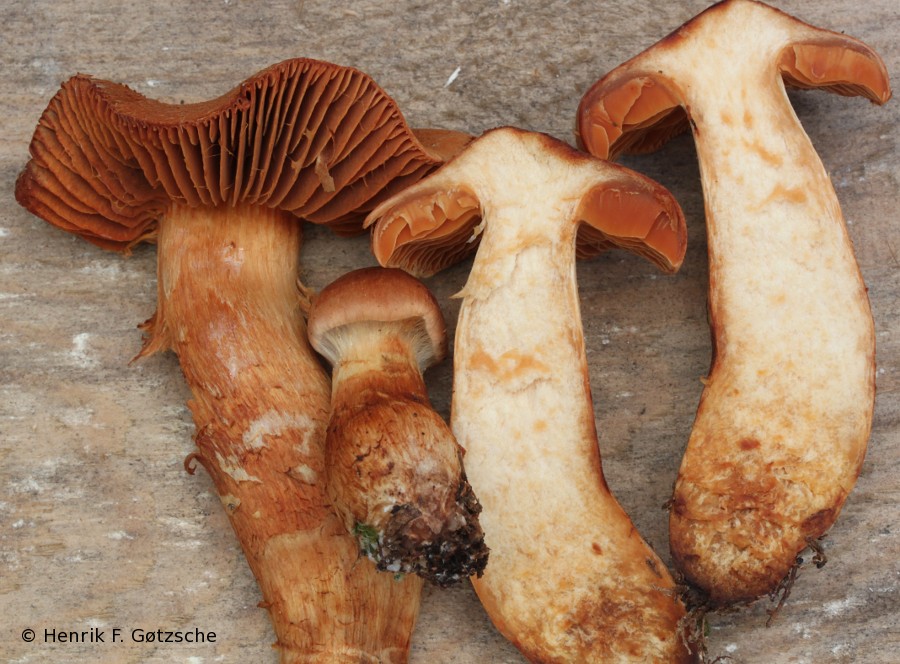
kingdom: Fungi
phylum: Basidiomycota
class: Agaricomycetes
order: Agaricales
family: Cortinariaceae
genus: Cortinarius
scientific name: Cortinarius rubellus
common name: puklet gift-slørhat
